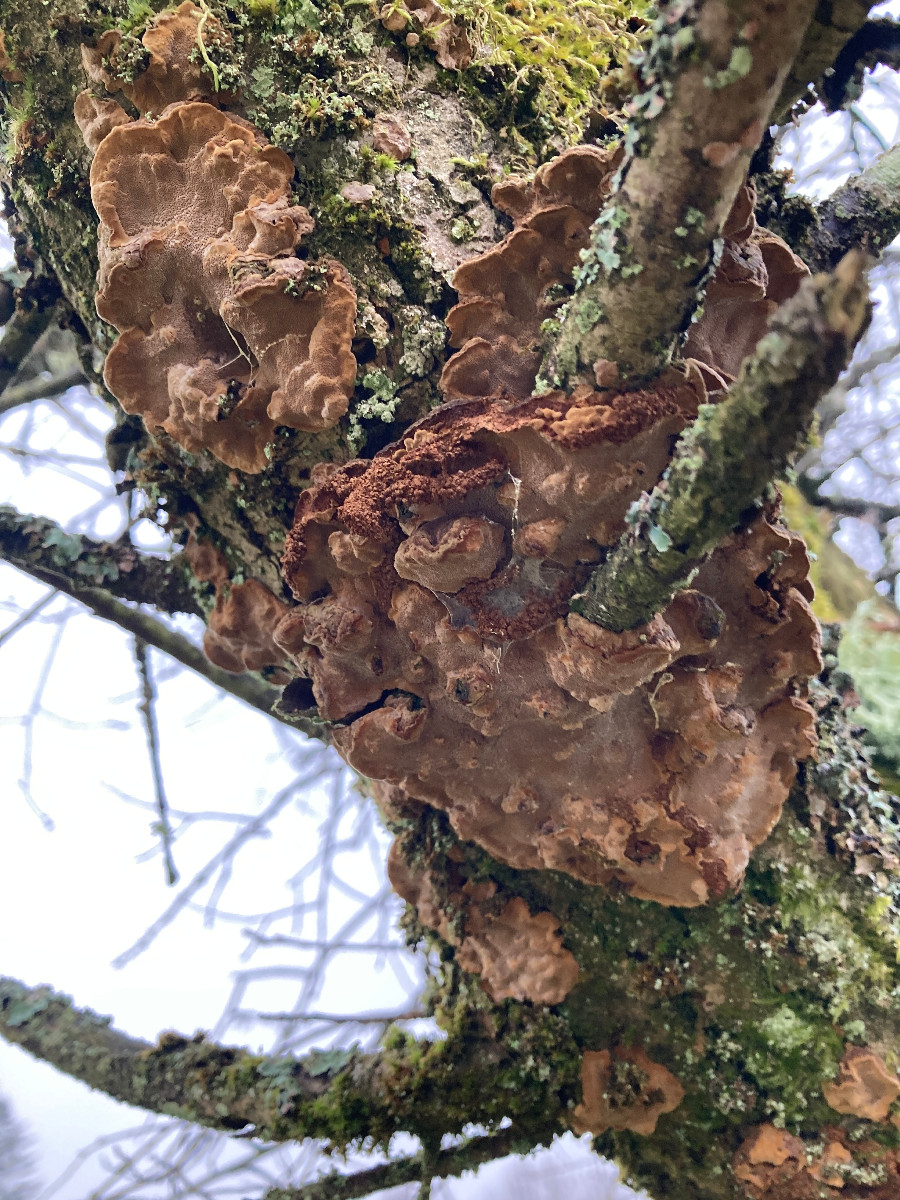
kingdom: Fungi
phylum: Basidiomycota
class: Agaricomycetes
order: Hymenochaetales
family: Hymenochaetaceae
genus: Phellinopsis
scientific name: Phellinopsis conchata
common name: pile-ildporesvamp
